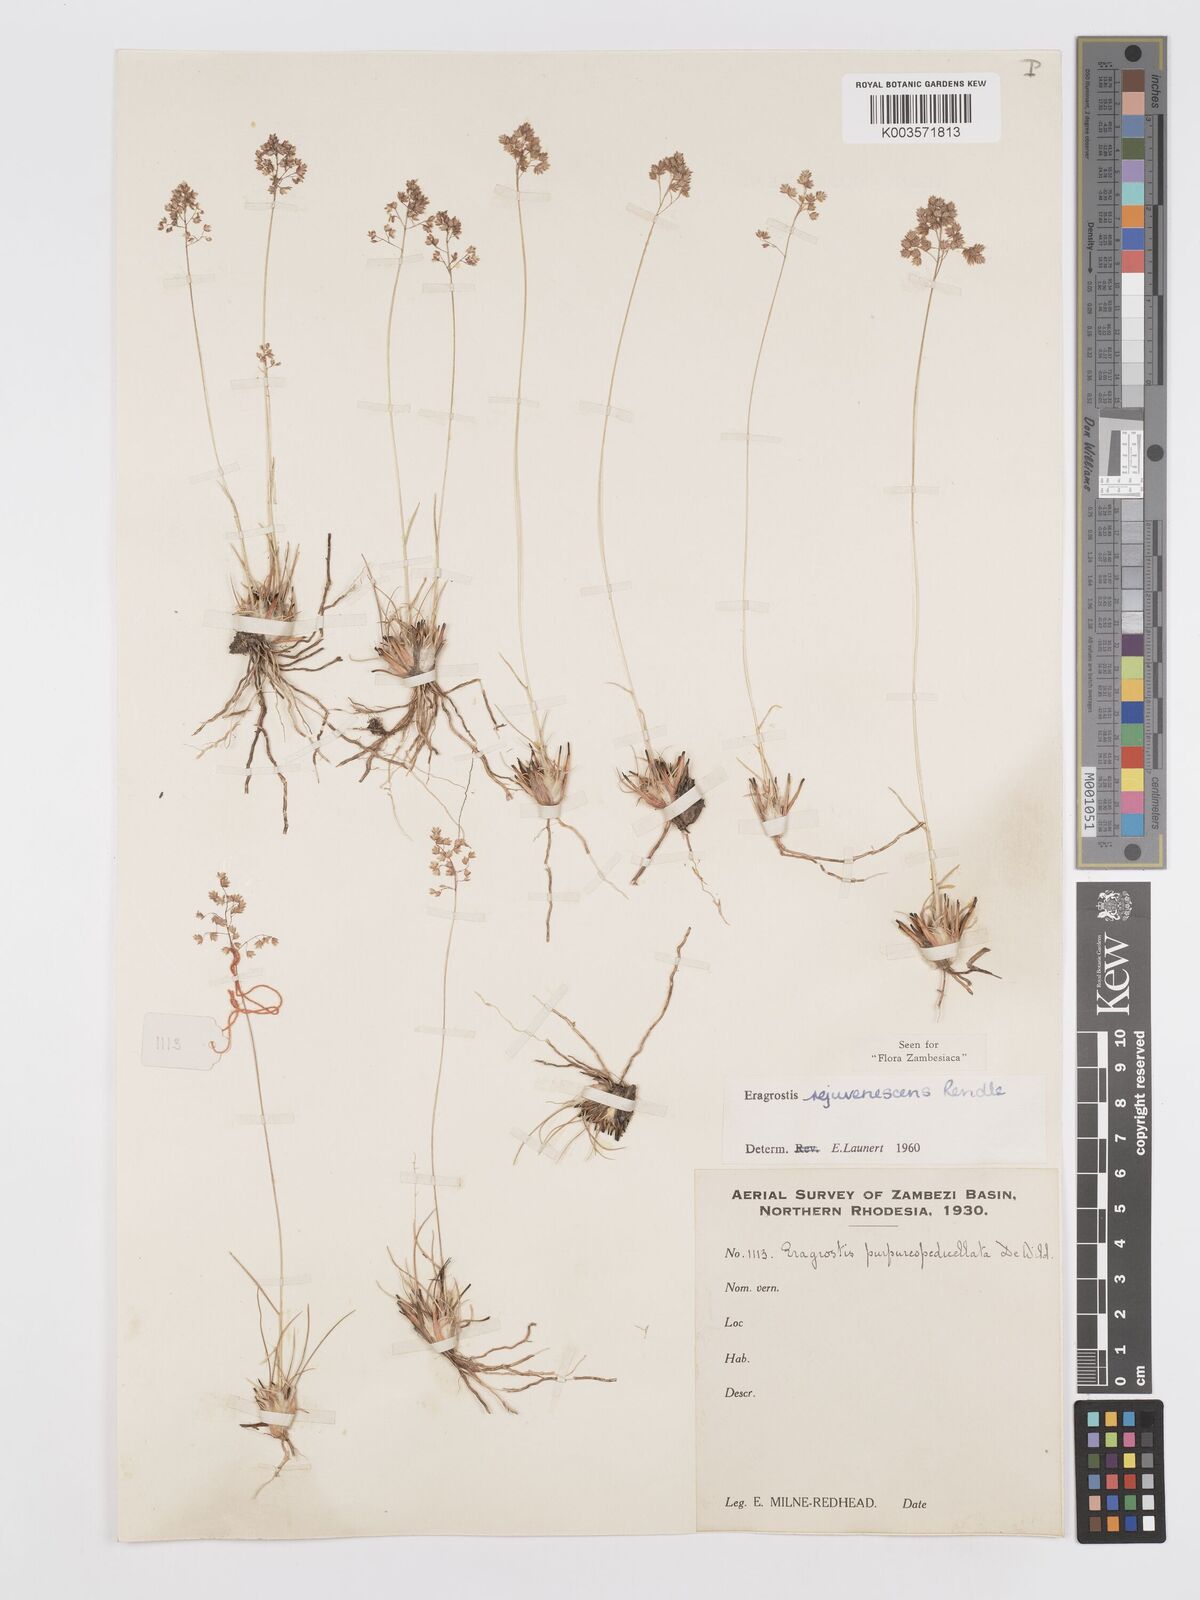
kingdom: Plantae
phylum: Tracheophyta
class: Liliopsida
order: Poales
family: Poaceae
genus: Eragrostis
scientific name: Eragrostis rejuvenescens
